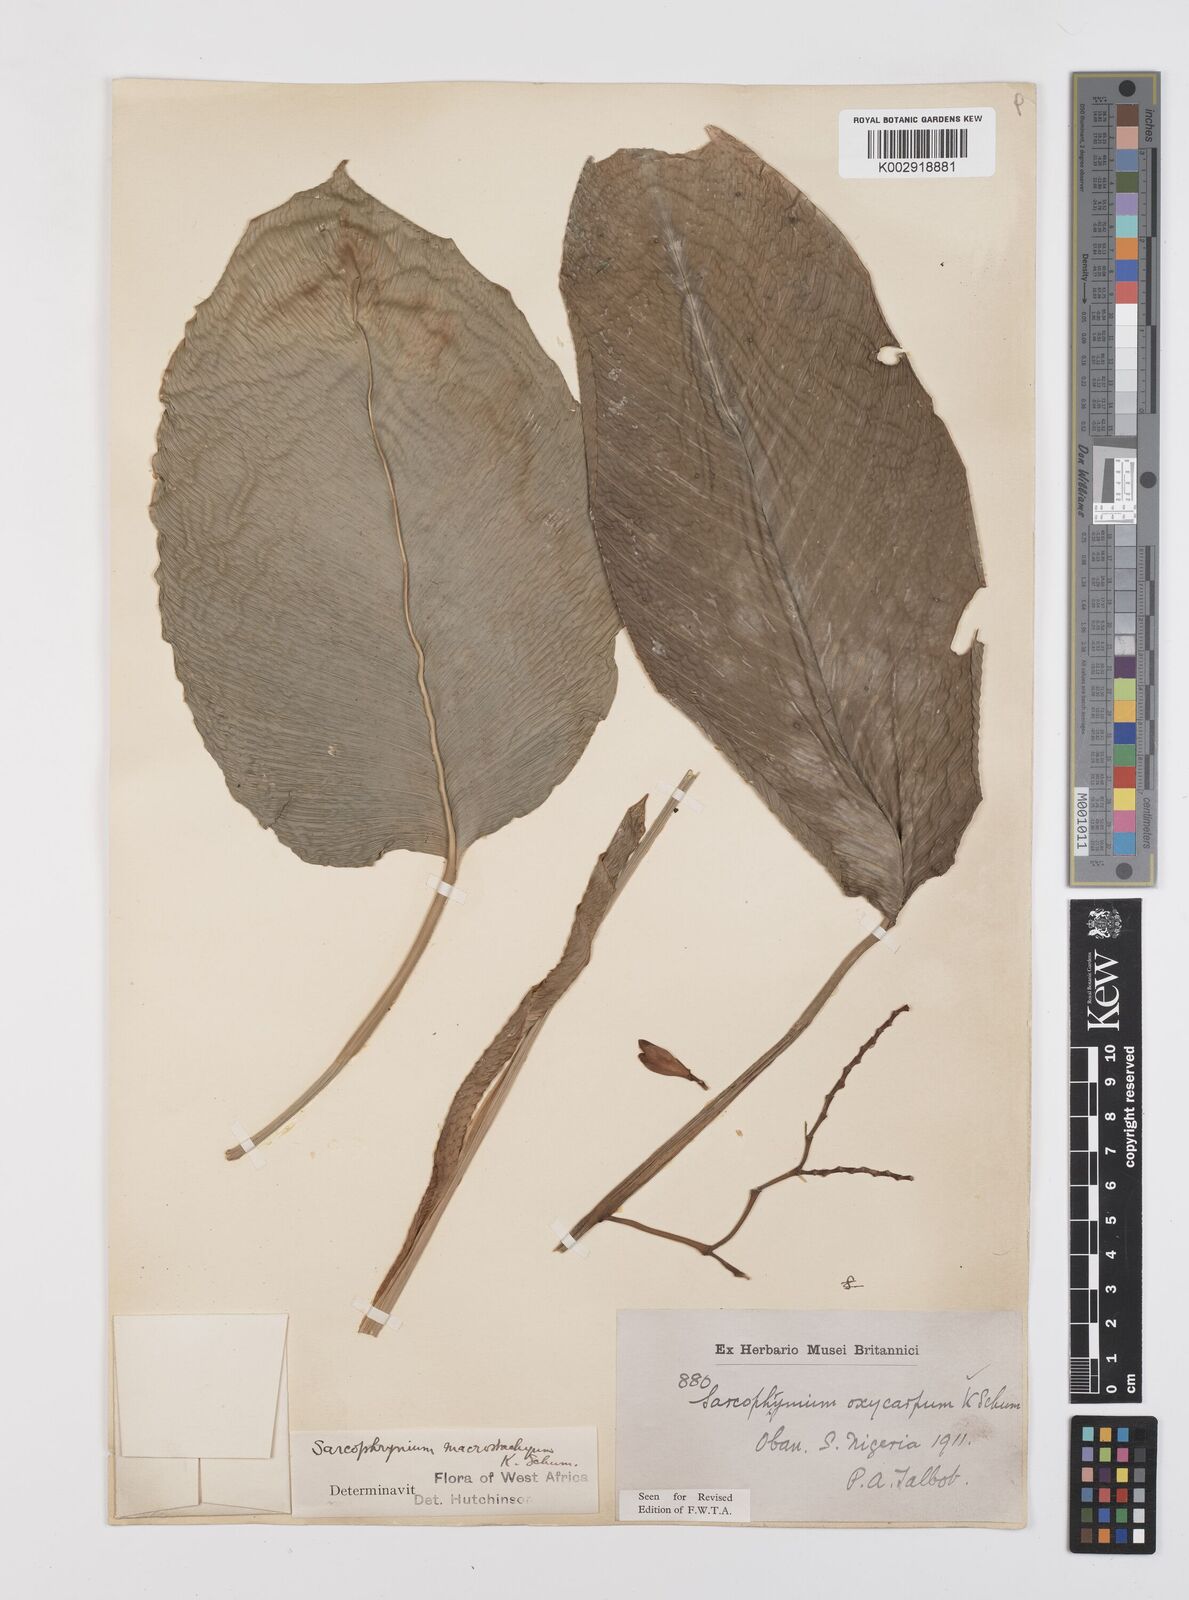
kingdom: Plantae
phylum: Tracheophyta
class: Liliopsida
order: Zingiberales
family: Marantaceae
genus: Megaphrynium
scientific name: Megaphrynium macrostachyum
